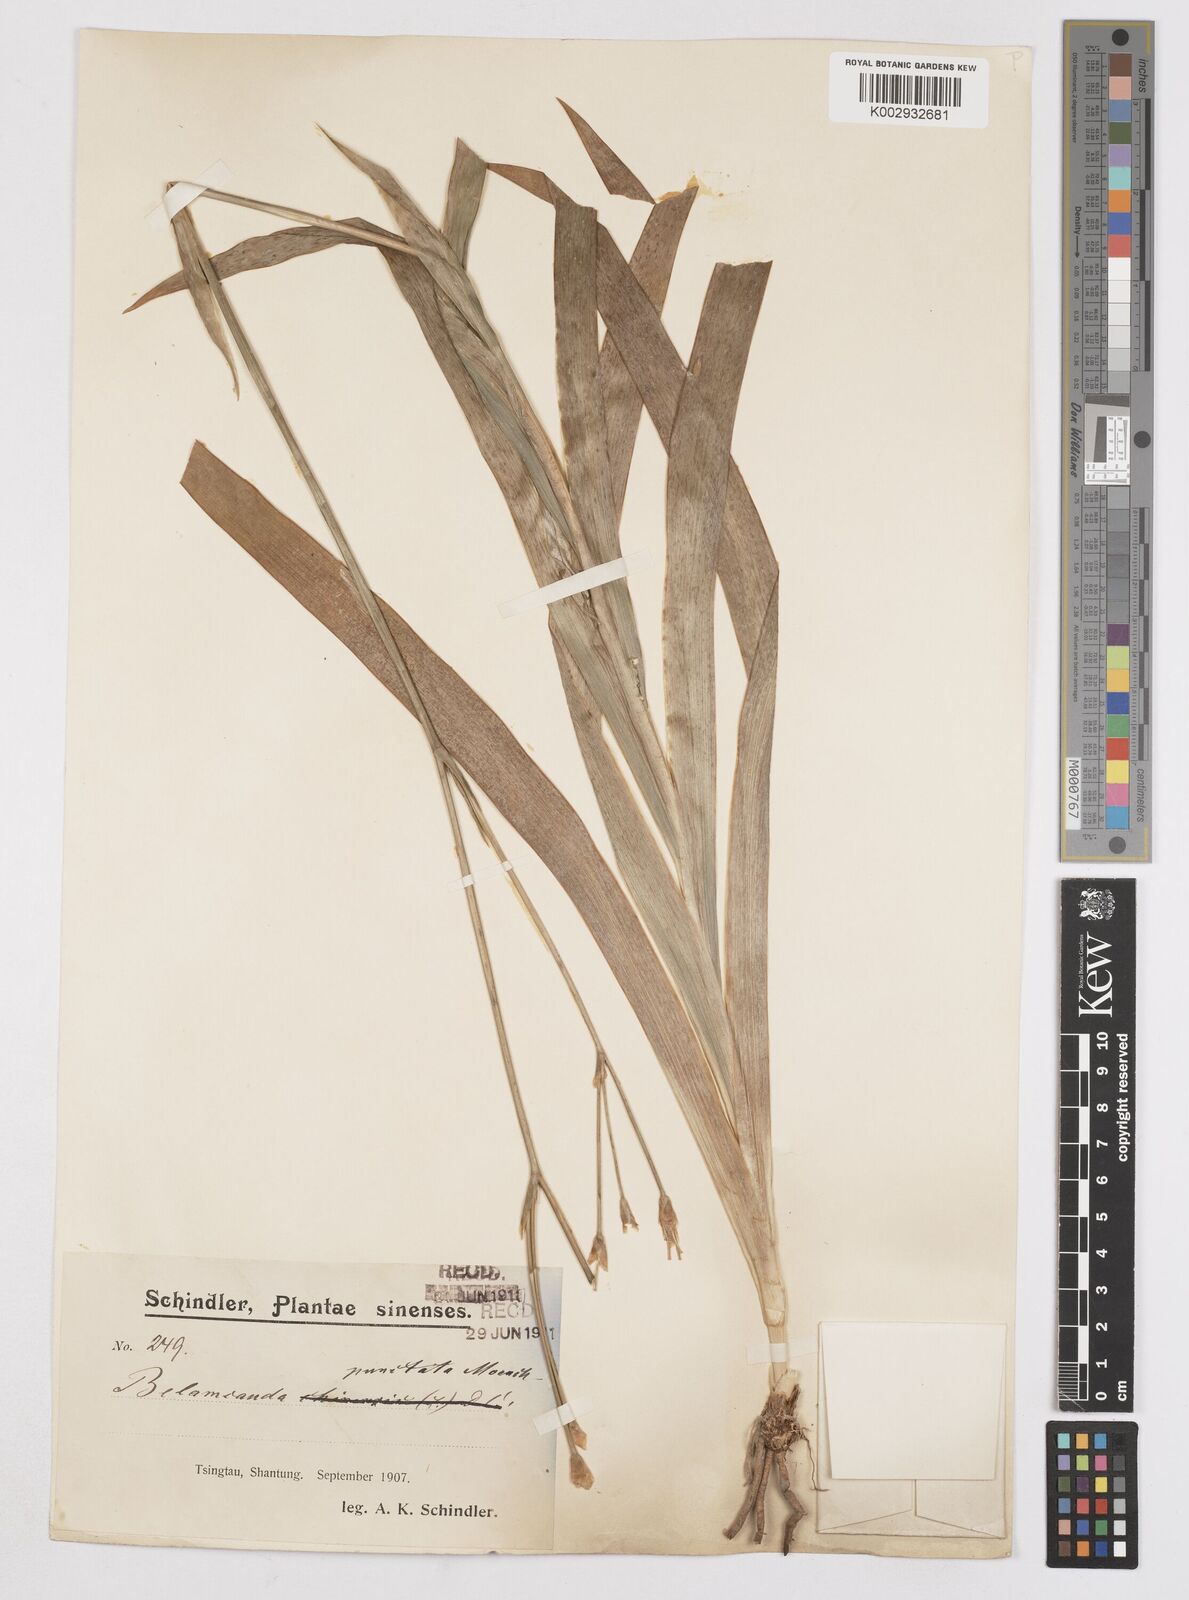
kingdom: Plantae
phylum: Tracheophyta
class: Liliopsida
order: Asparagales
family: Iridaceae
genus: Iris
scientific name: Iris
